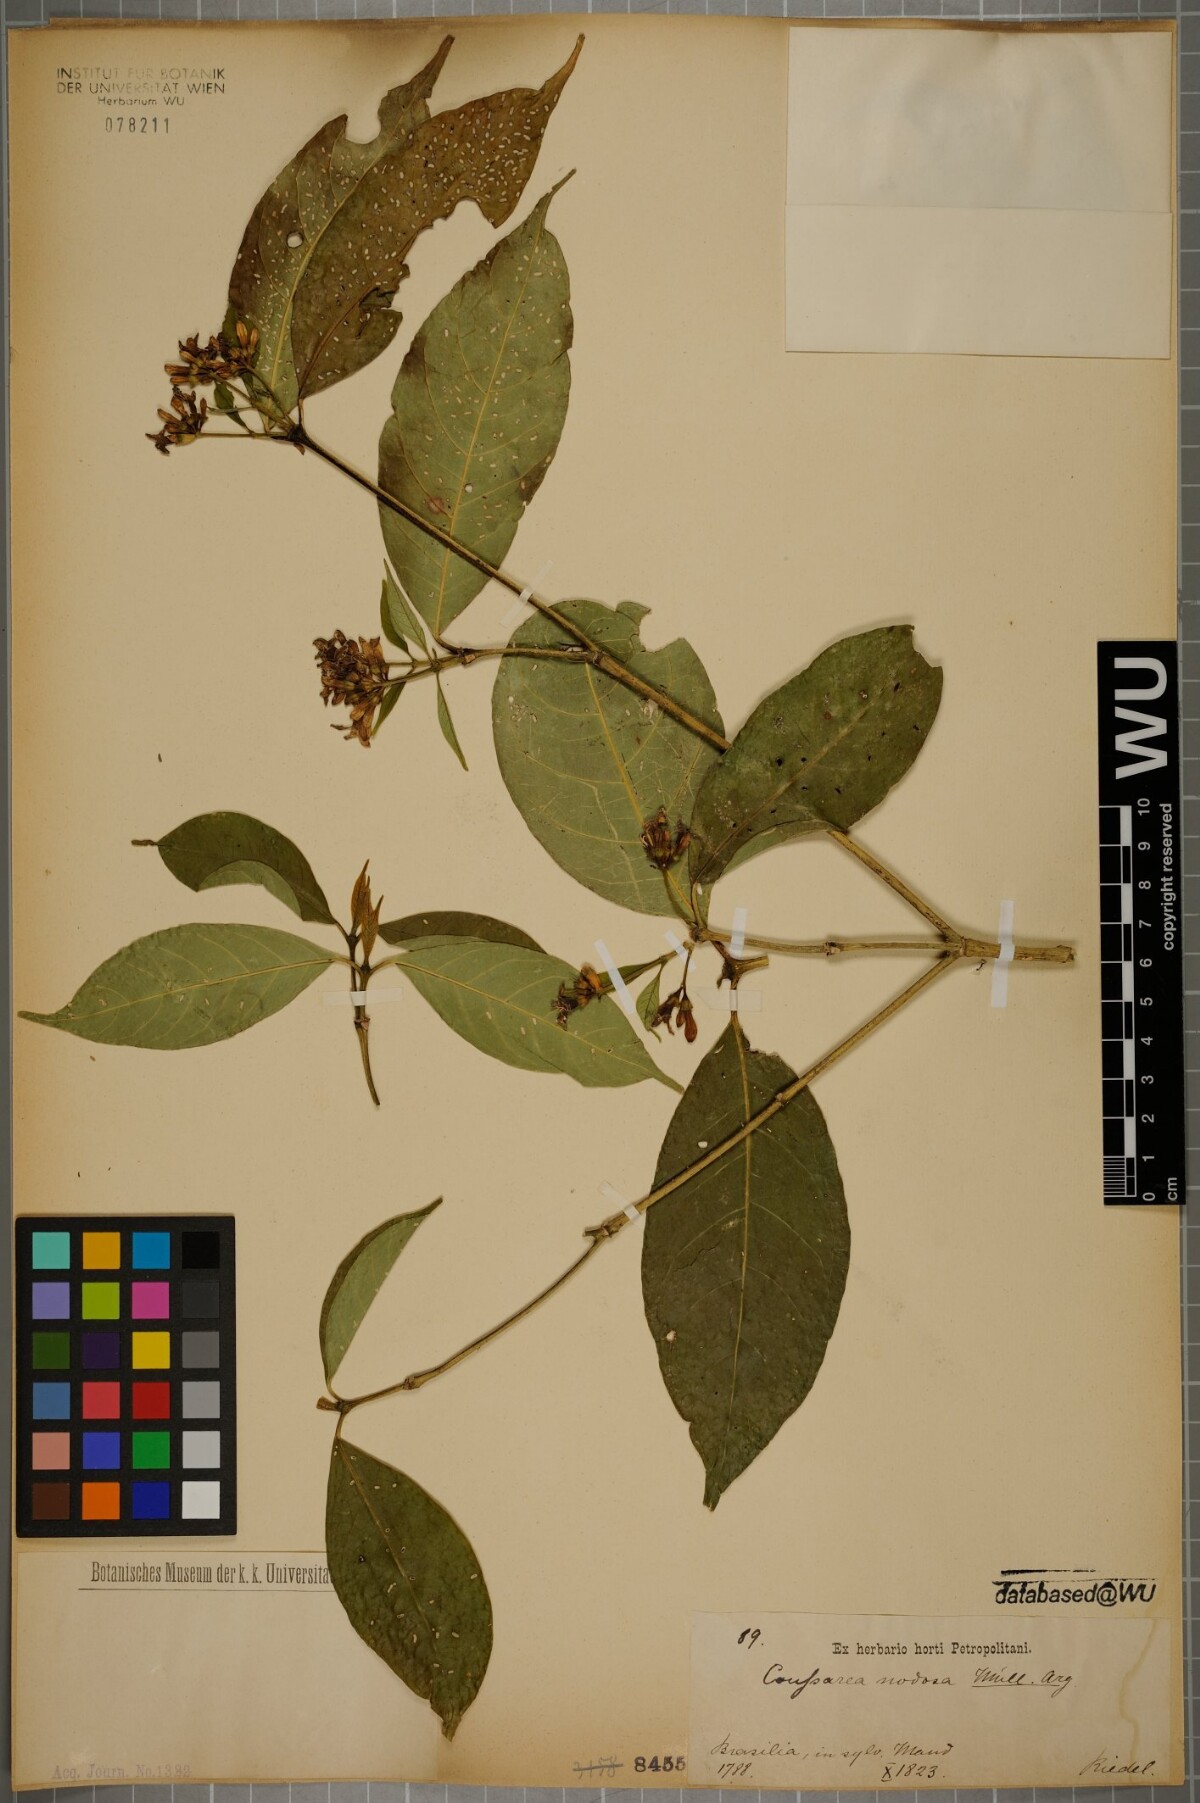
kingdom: Plantae
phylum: Tracheophyta
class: Magnoliopsida
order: Gentianales
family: Rubiaceae
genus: Coussarea
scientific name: Coussarea nodosa
